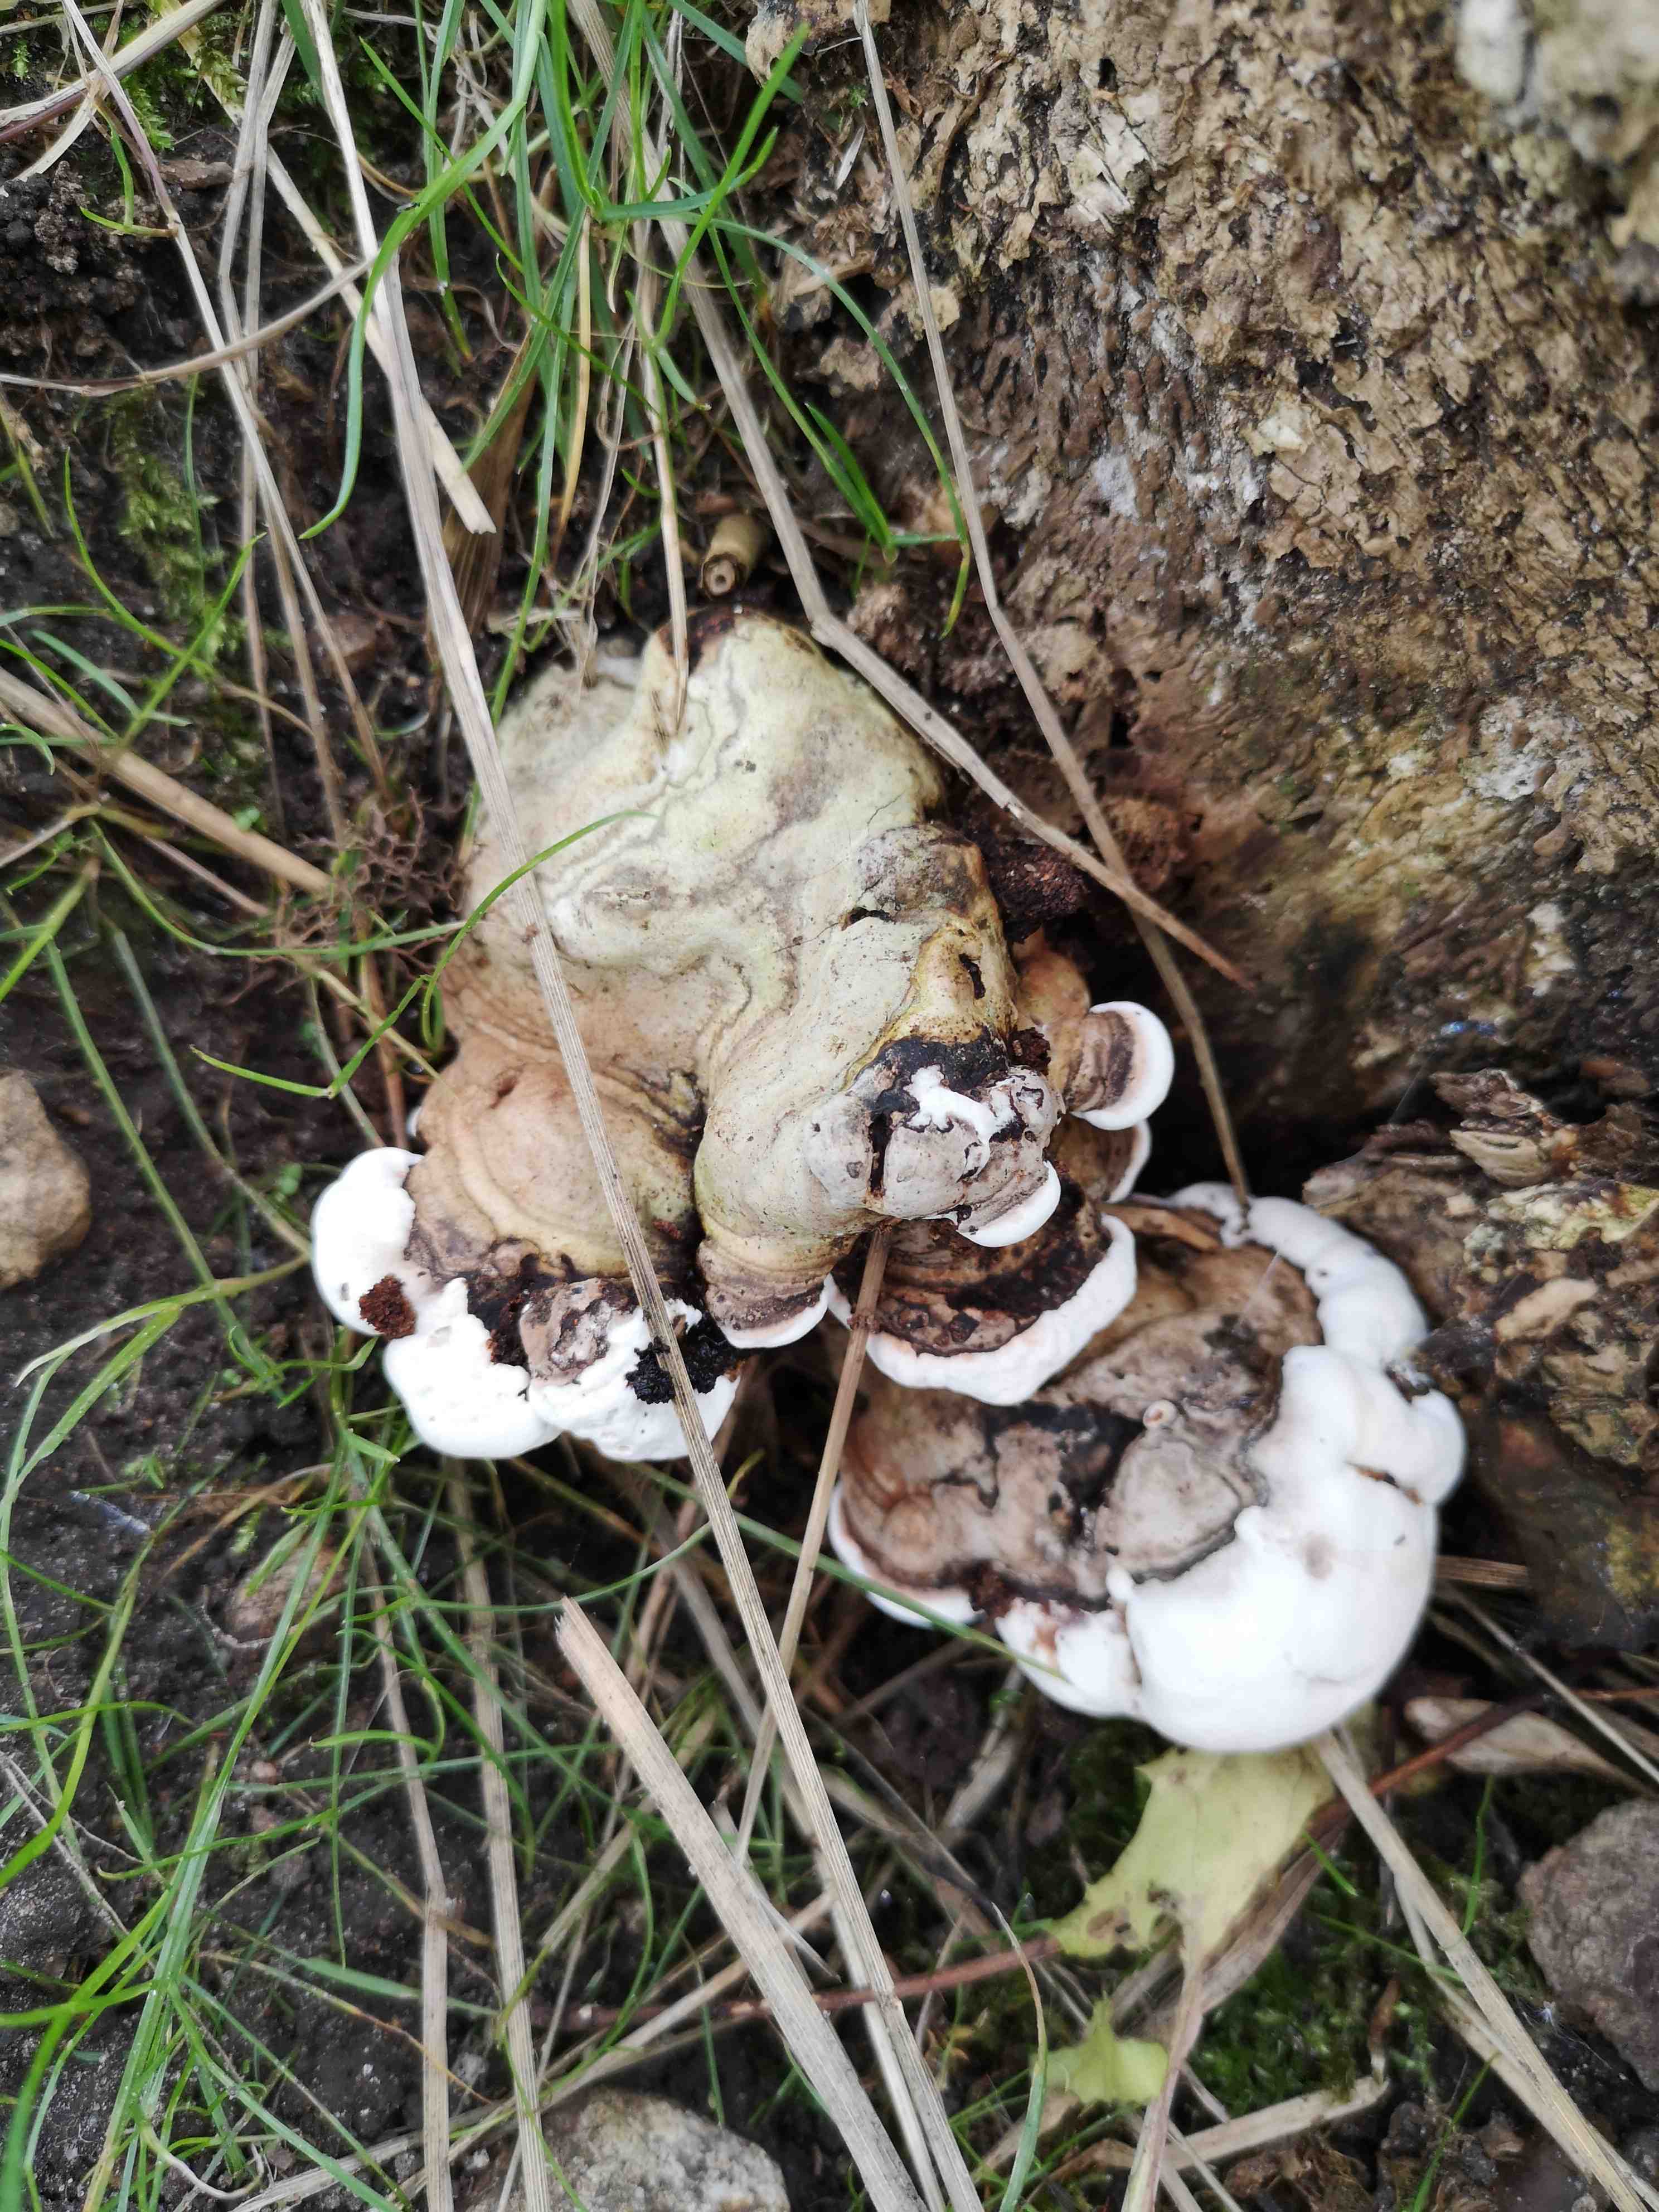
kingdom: Fungi
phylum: Basidiomycota
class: Agaricomycetes
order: Polyporales
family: Polyporaceae
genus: Ganoderma
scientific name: Ganoderma applanatum
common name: flad lakporesvamp
